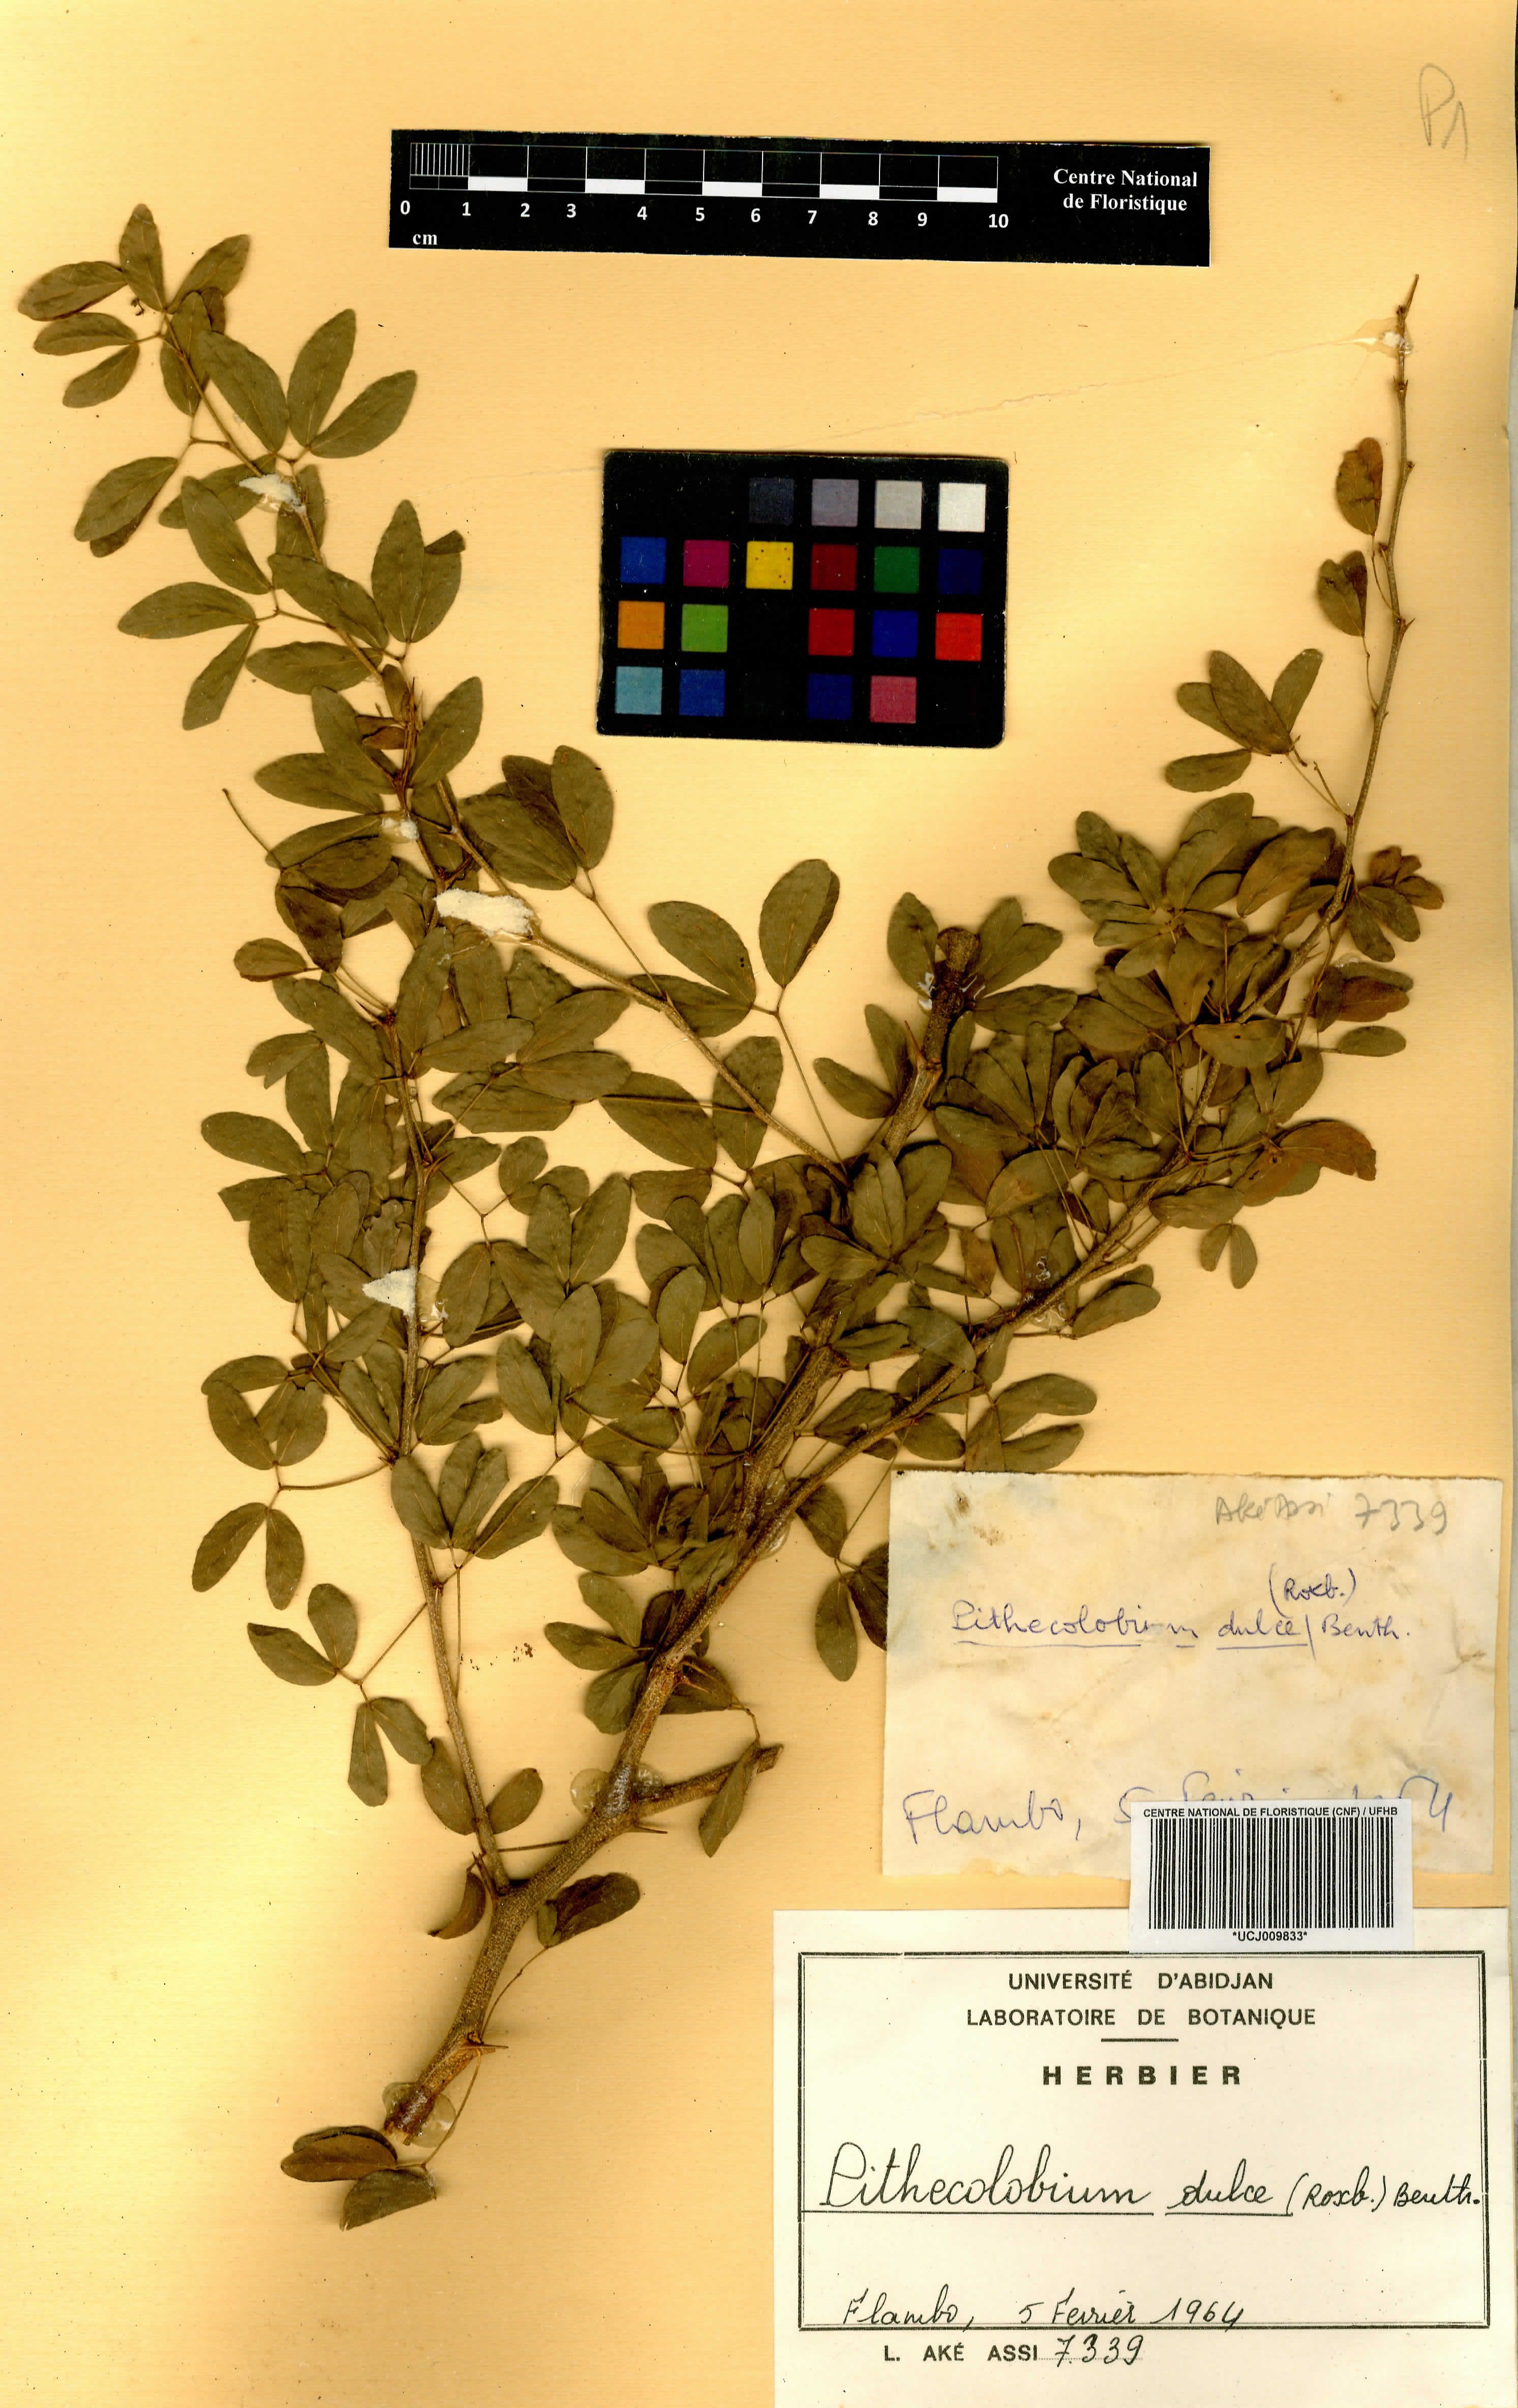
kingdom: Plantae
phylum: Tracheophyta
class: Magnoliopsida
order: Fabales
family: Fabaceae
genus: Pithecellobium
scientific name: Pithecellobium dulce
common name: Monkeypod
